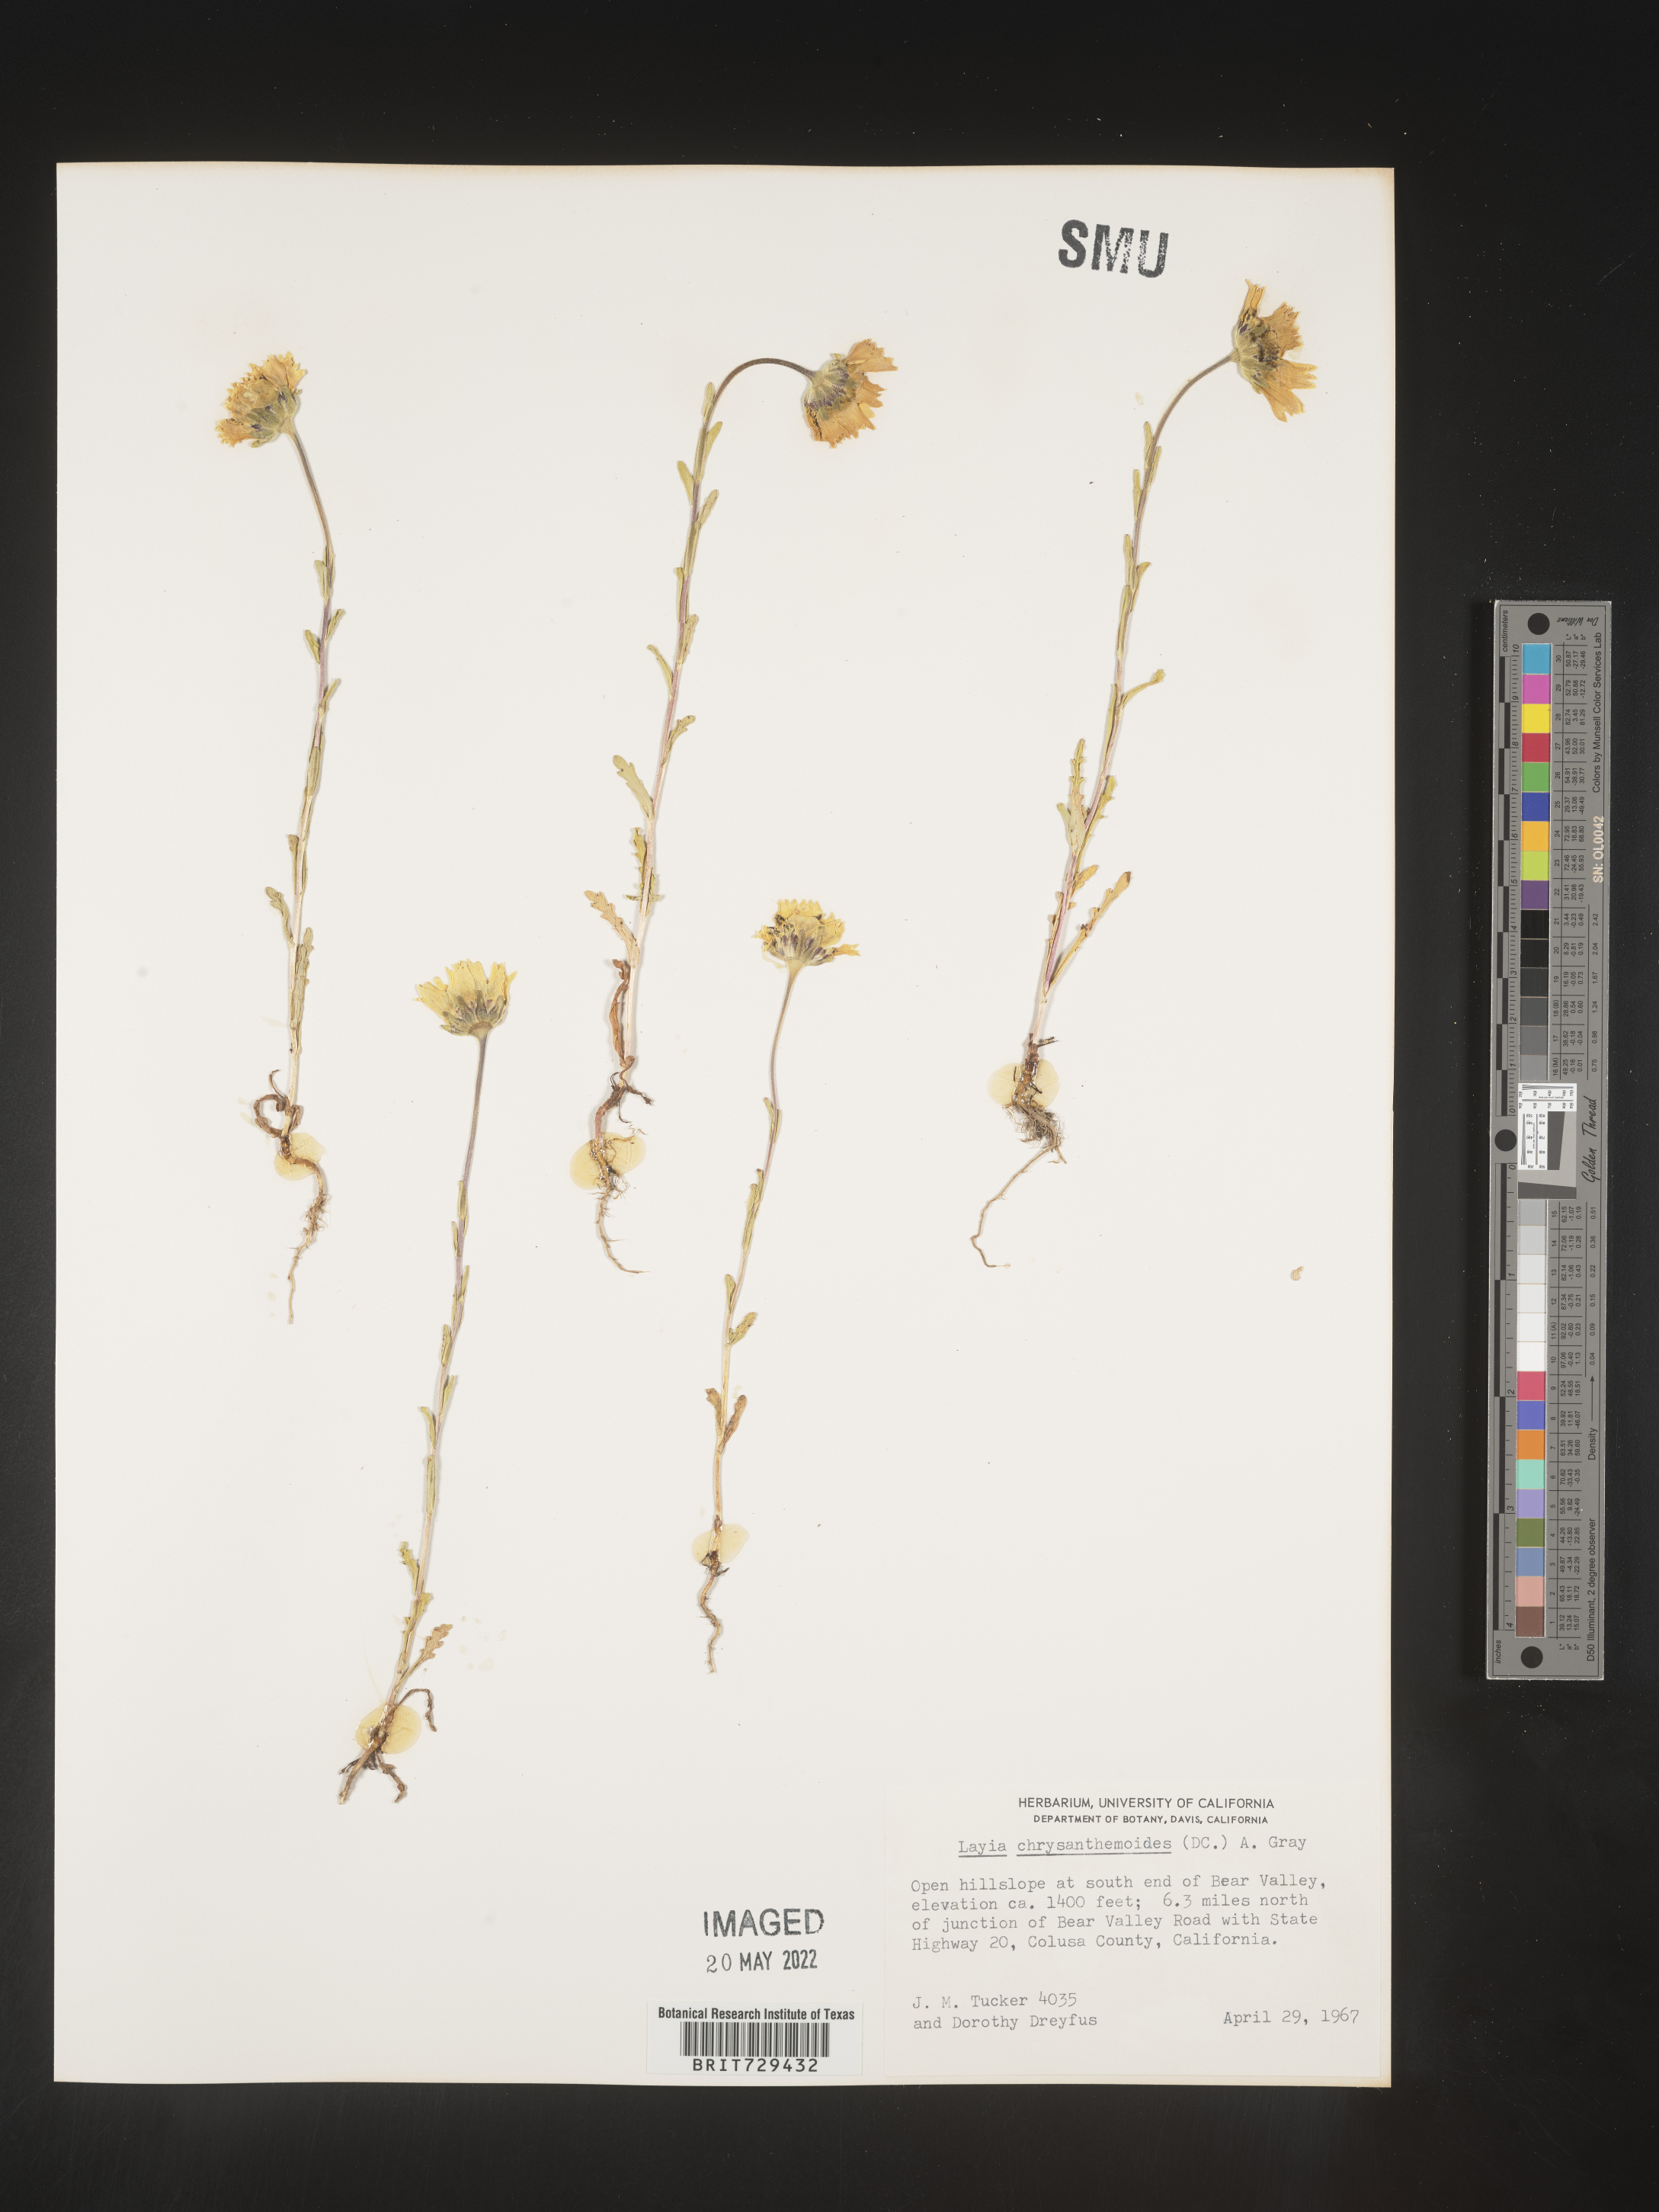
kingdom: Plantae
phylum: Tracheophyta
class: Magnoliopsida
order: Asterales
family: Asteraceae
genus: Layia
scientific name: Layia
